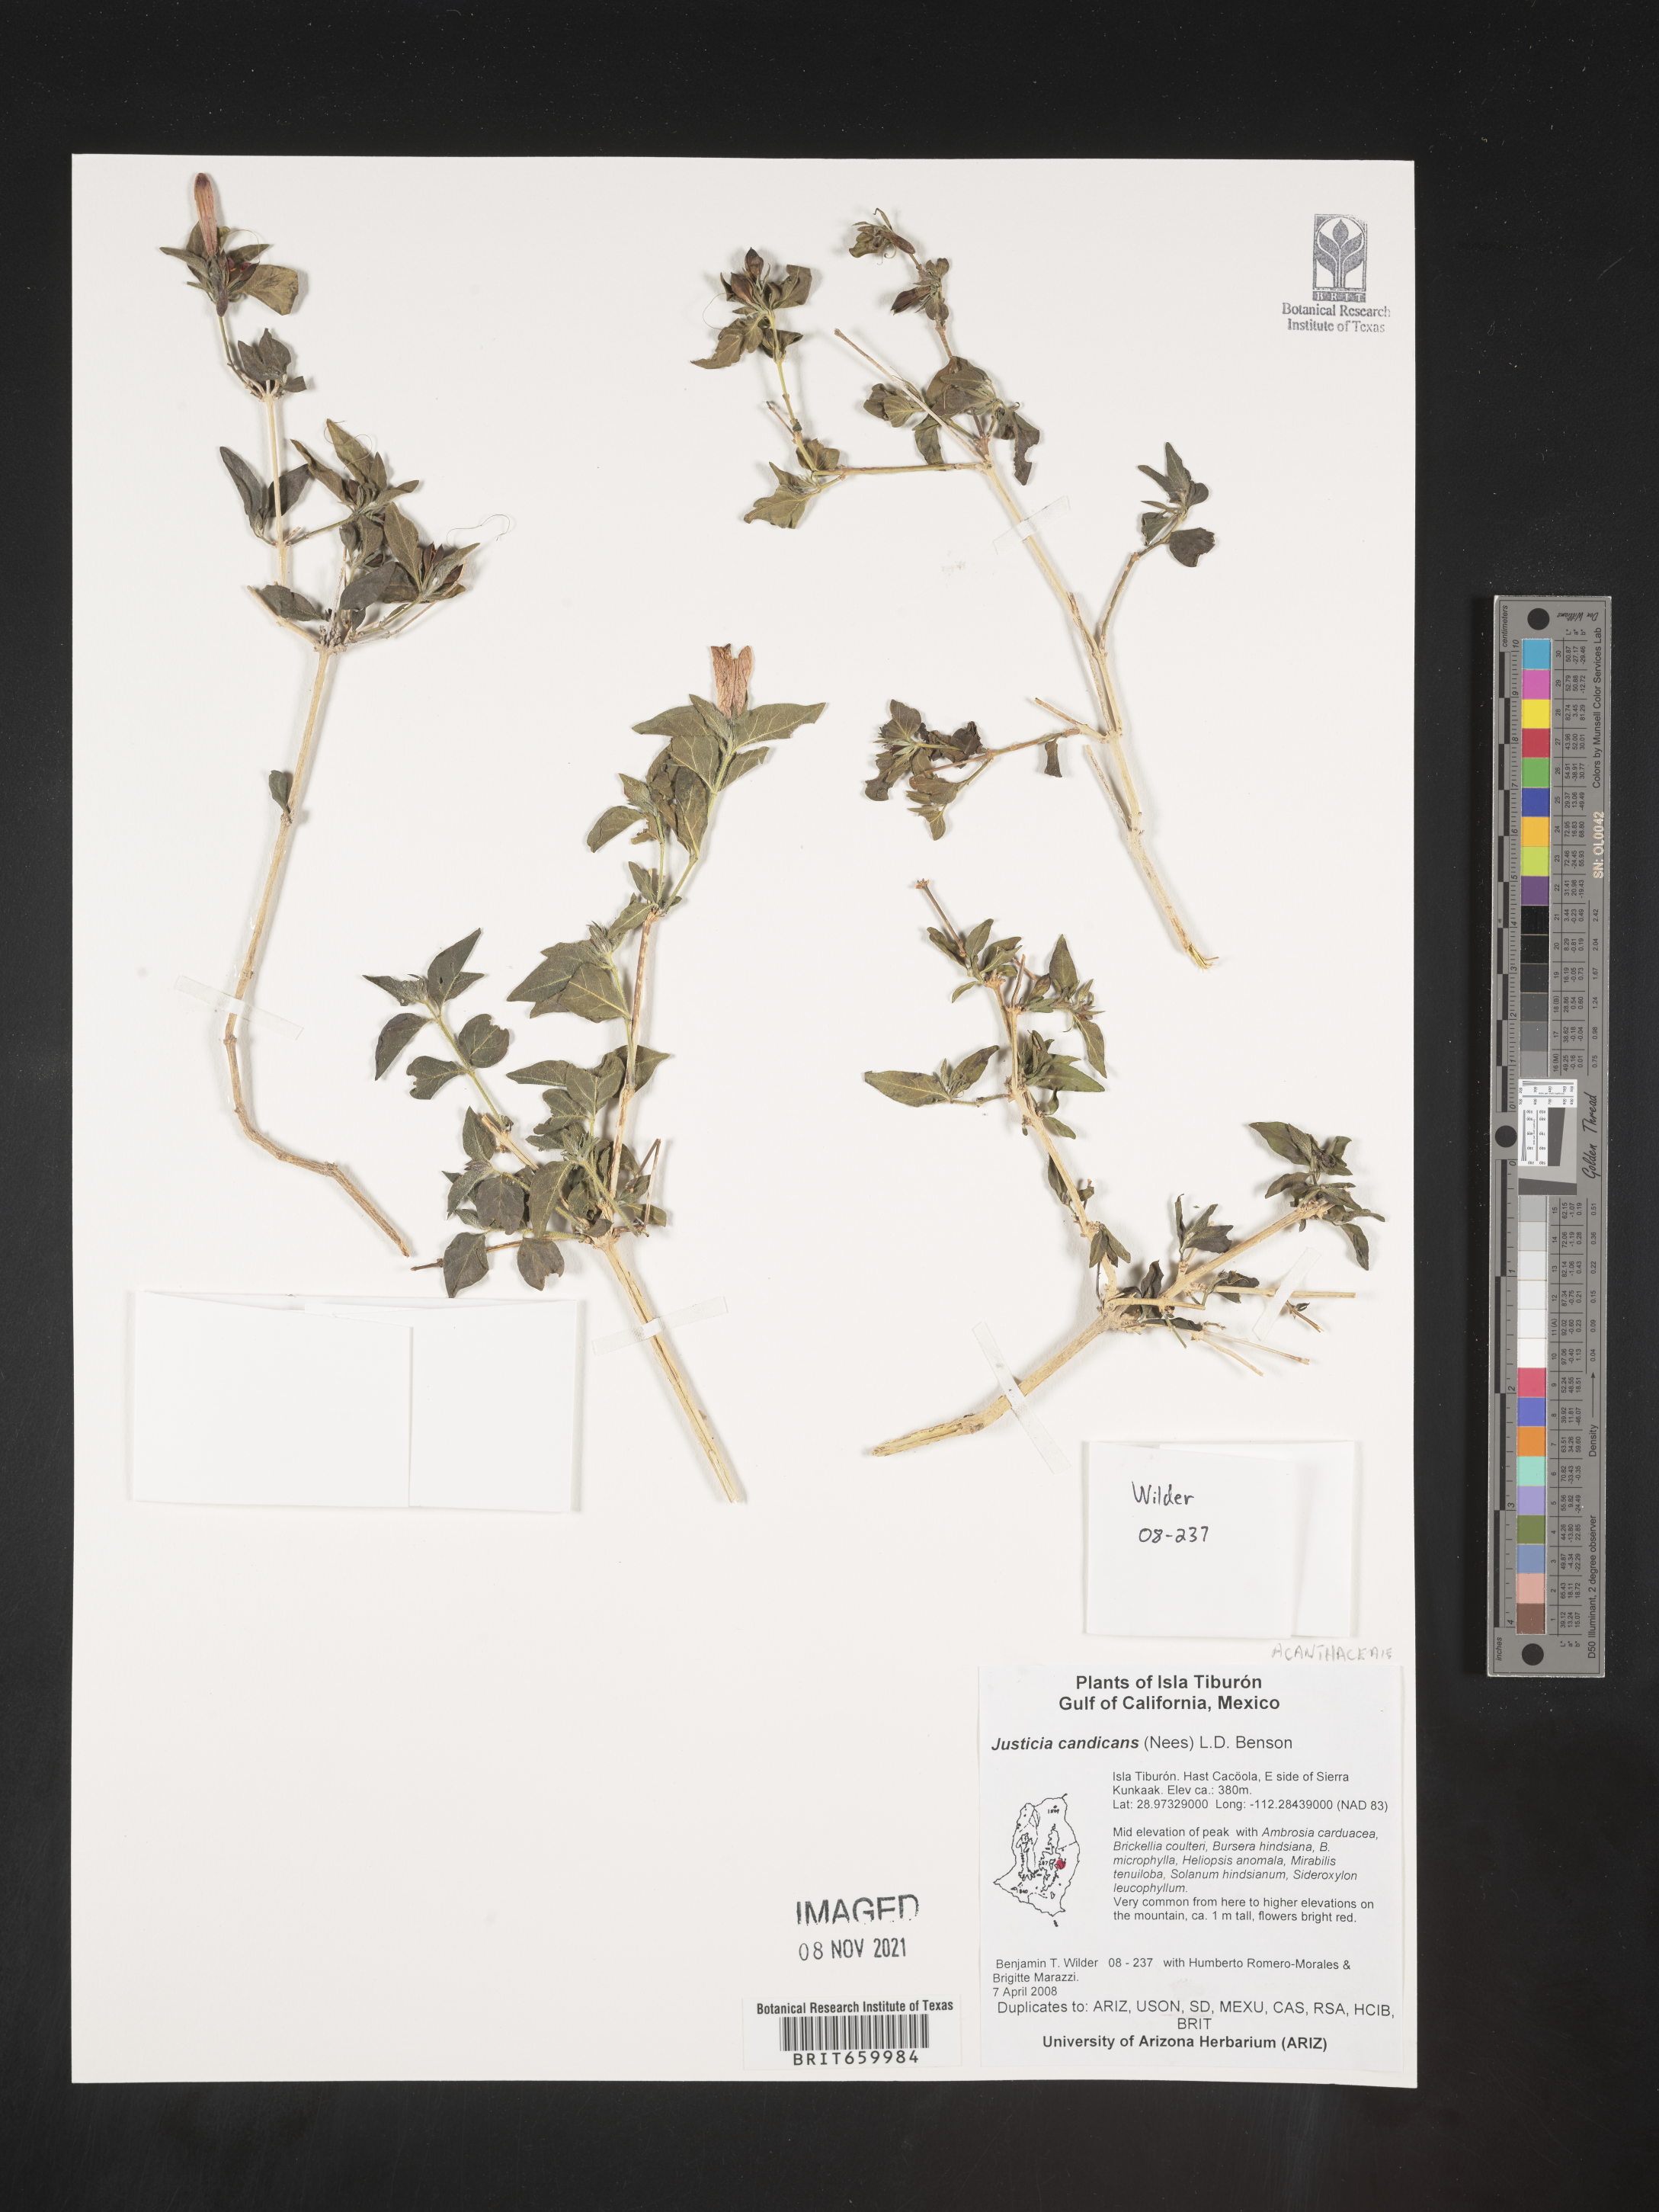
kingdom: Plantae
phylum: Tracheophyta
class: Magnoliopsida
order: Lamiales
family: Acanthaceae
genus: Justicia
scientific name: Justicia
